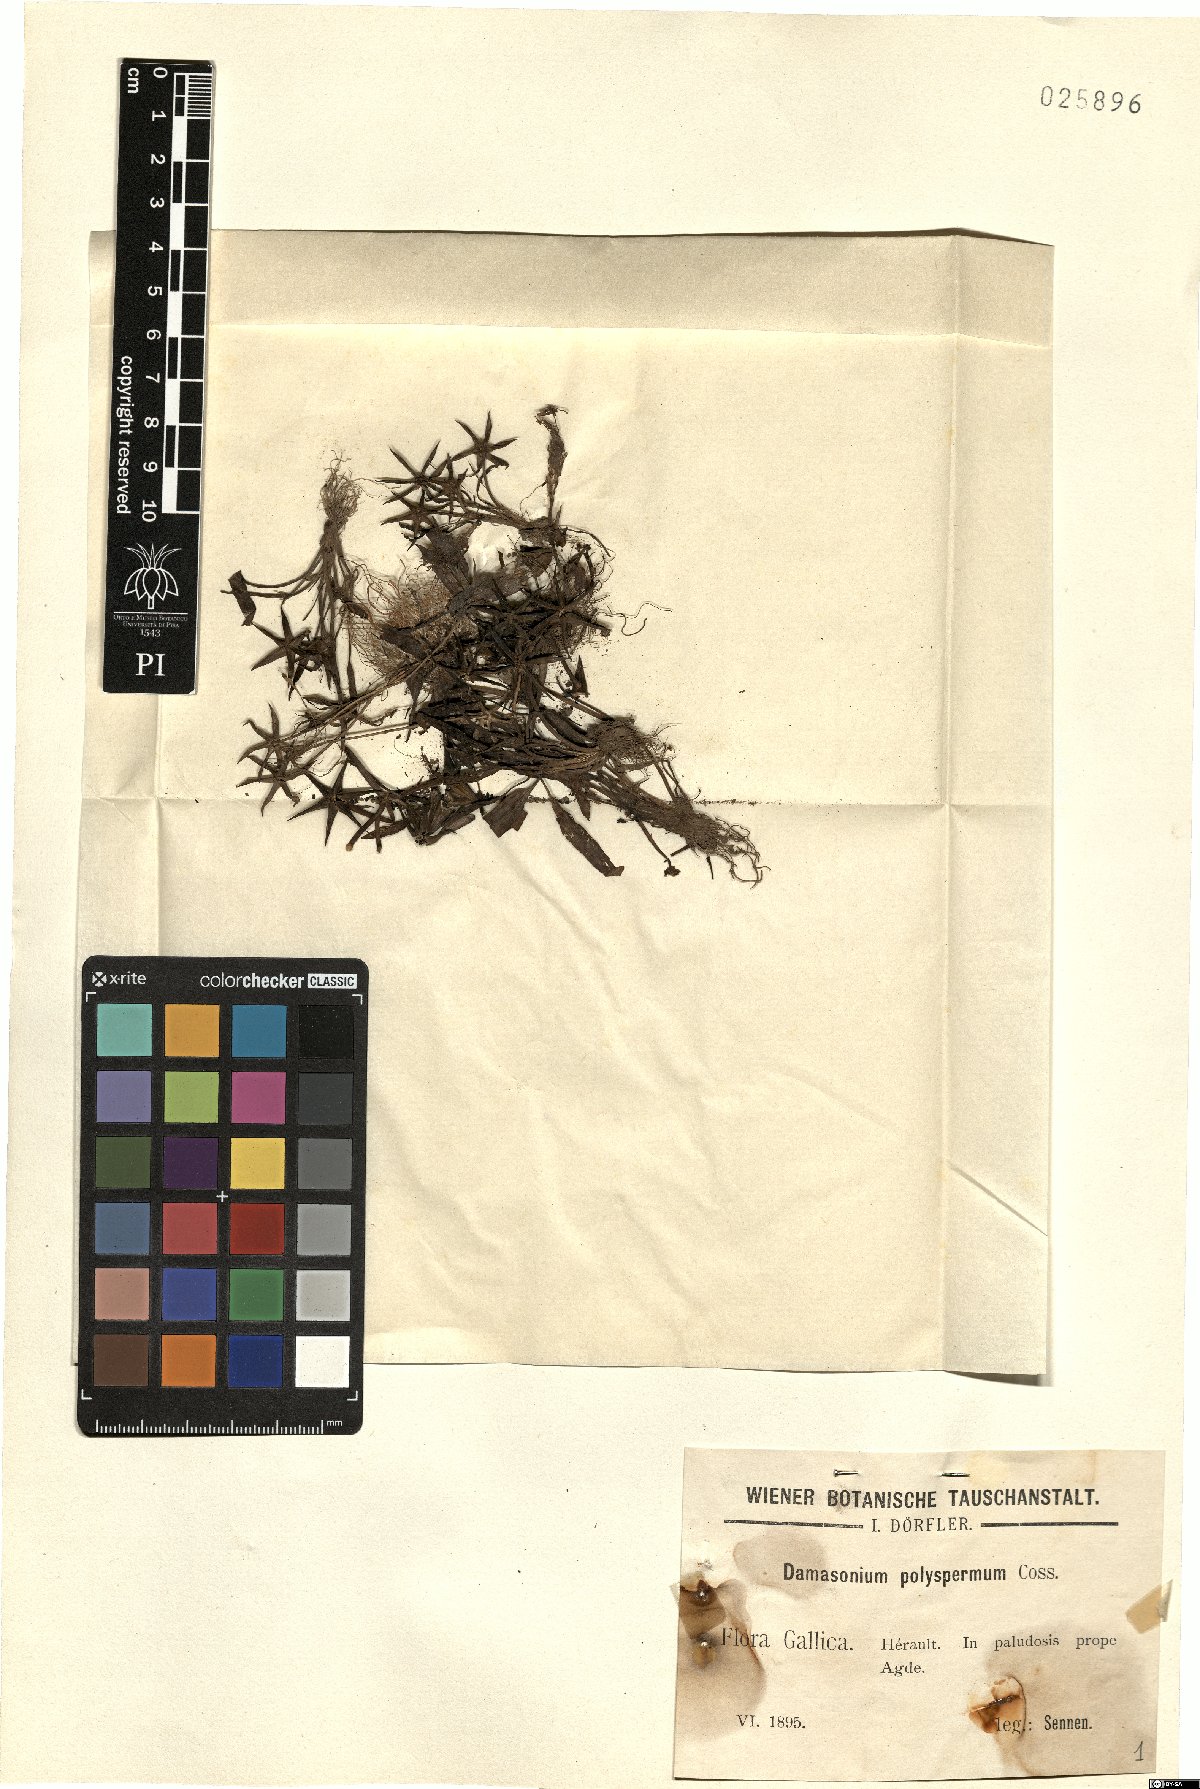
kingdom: Plantae
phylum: Tracheophyta
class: Liliopsida
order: Alismatales
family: Alismataceae
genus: Damasonium
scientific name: Damasonium polyspermum
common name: Starfruit
